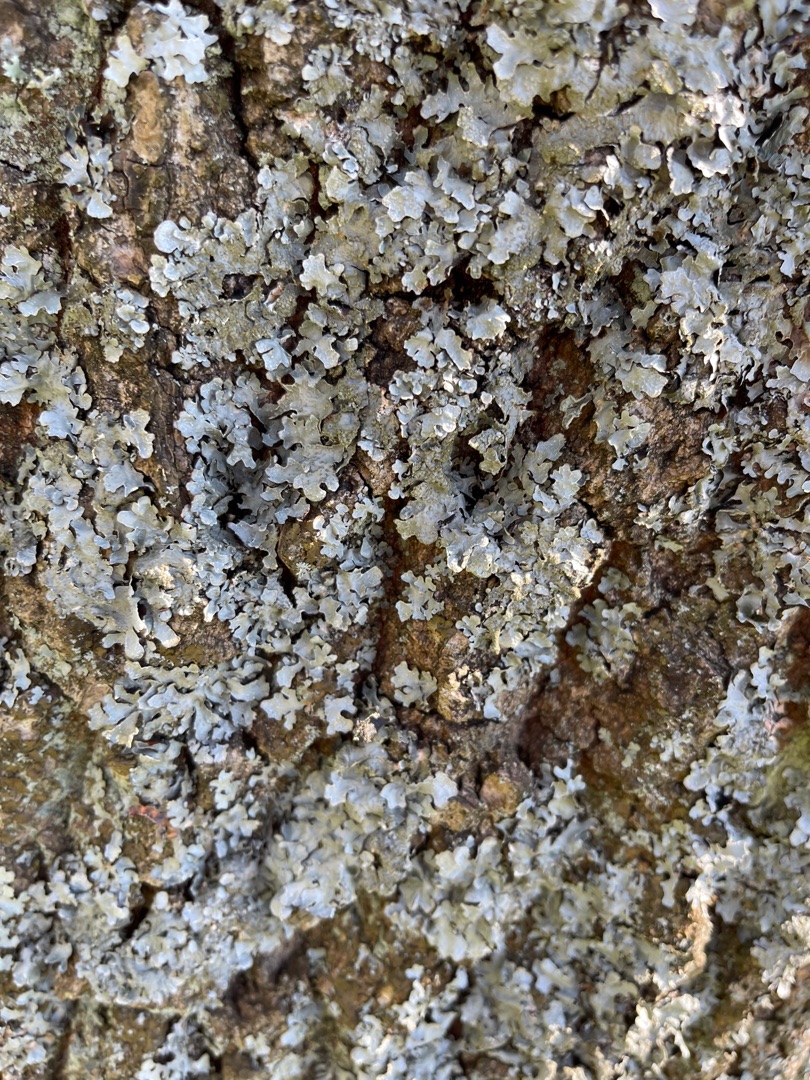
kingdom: Fungi
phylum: Ascomycota
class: Lecanoromycetes
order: Lecanorales
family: Parmeliaceae
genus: Parmelia
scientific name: Parmelia sulcata
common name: Rynket skållav
